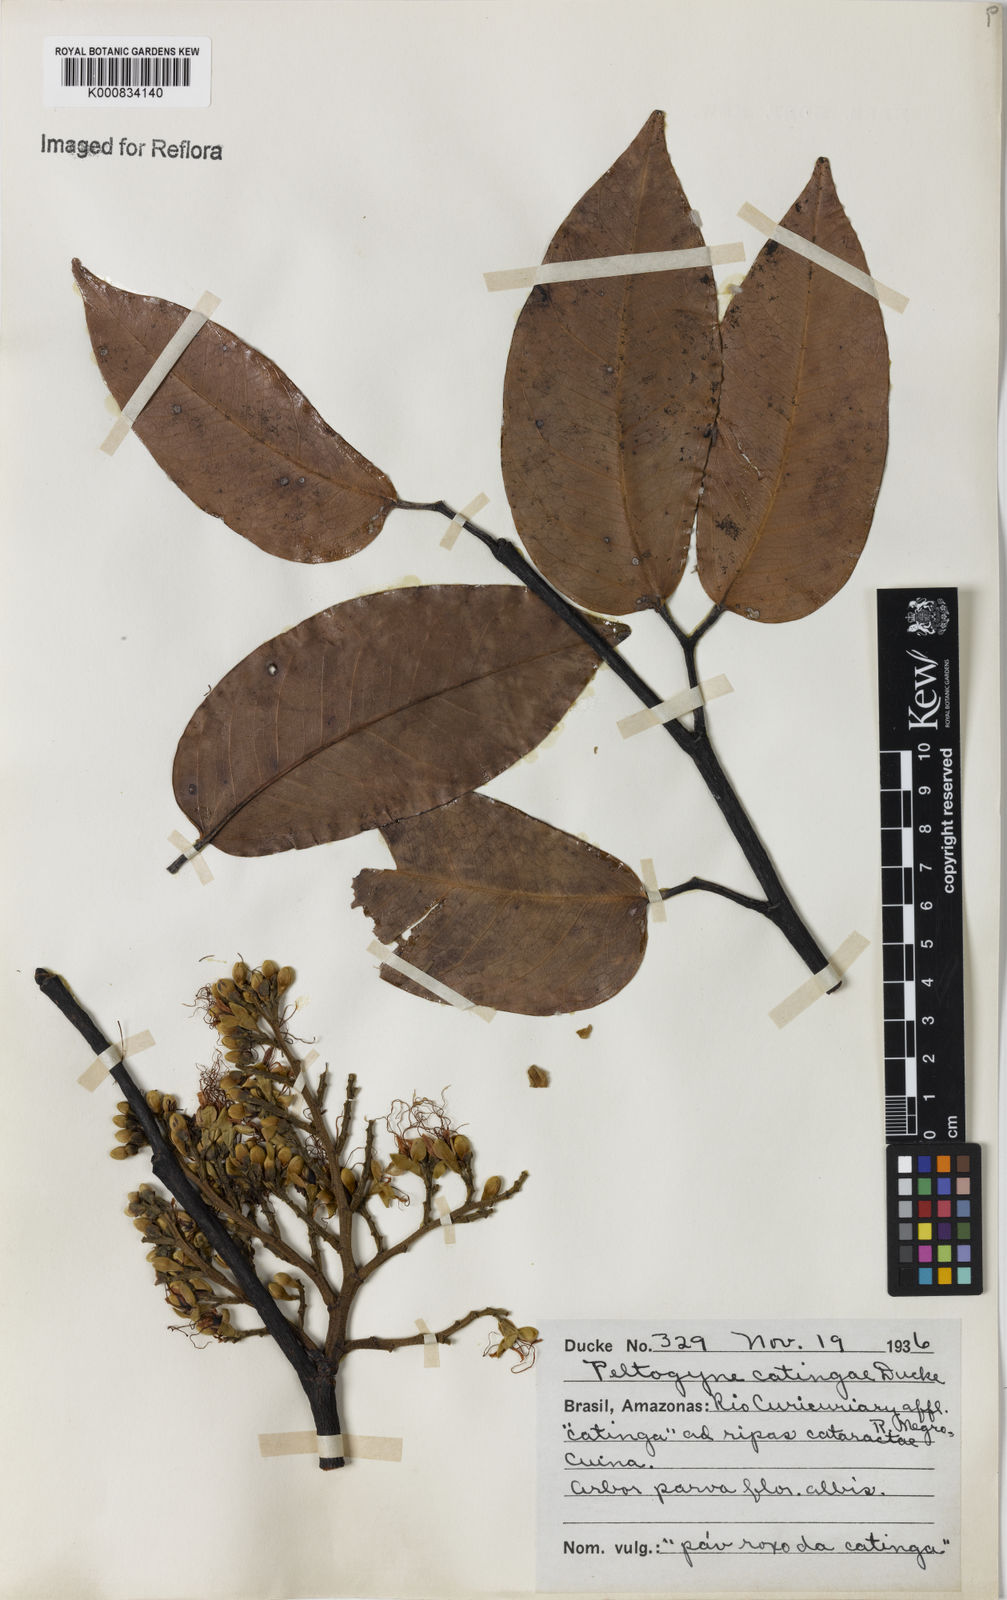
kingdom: Plantae
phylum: Tracheophyta
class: Magnoliopsida
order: Fabales
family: Fabaceae
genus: Peltogyne
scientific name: Peltogyne catingae
